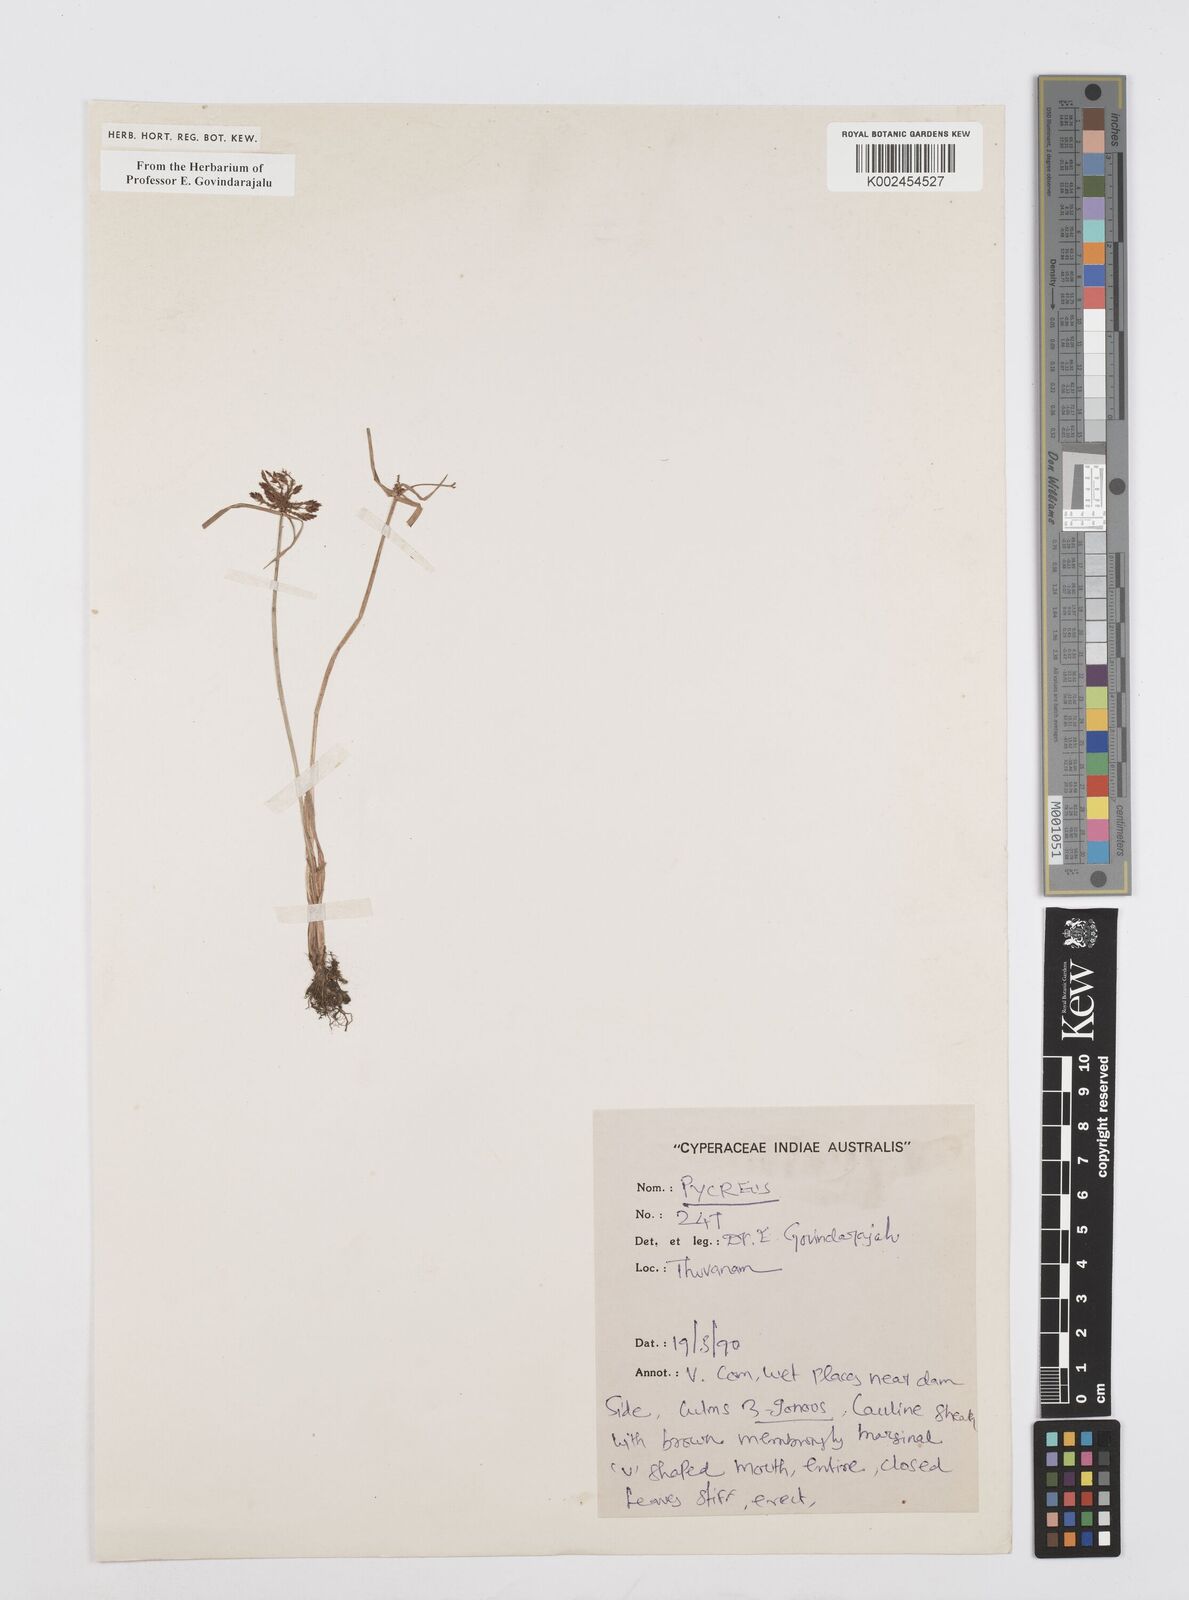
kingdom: Plantae
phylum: Tracheophyta
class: Liliopsida
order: Poales
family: Cyperaceae
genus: Cyperus
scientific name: Cyperus
